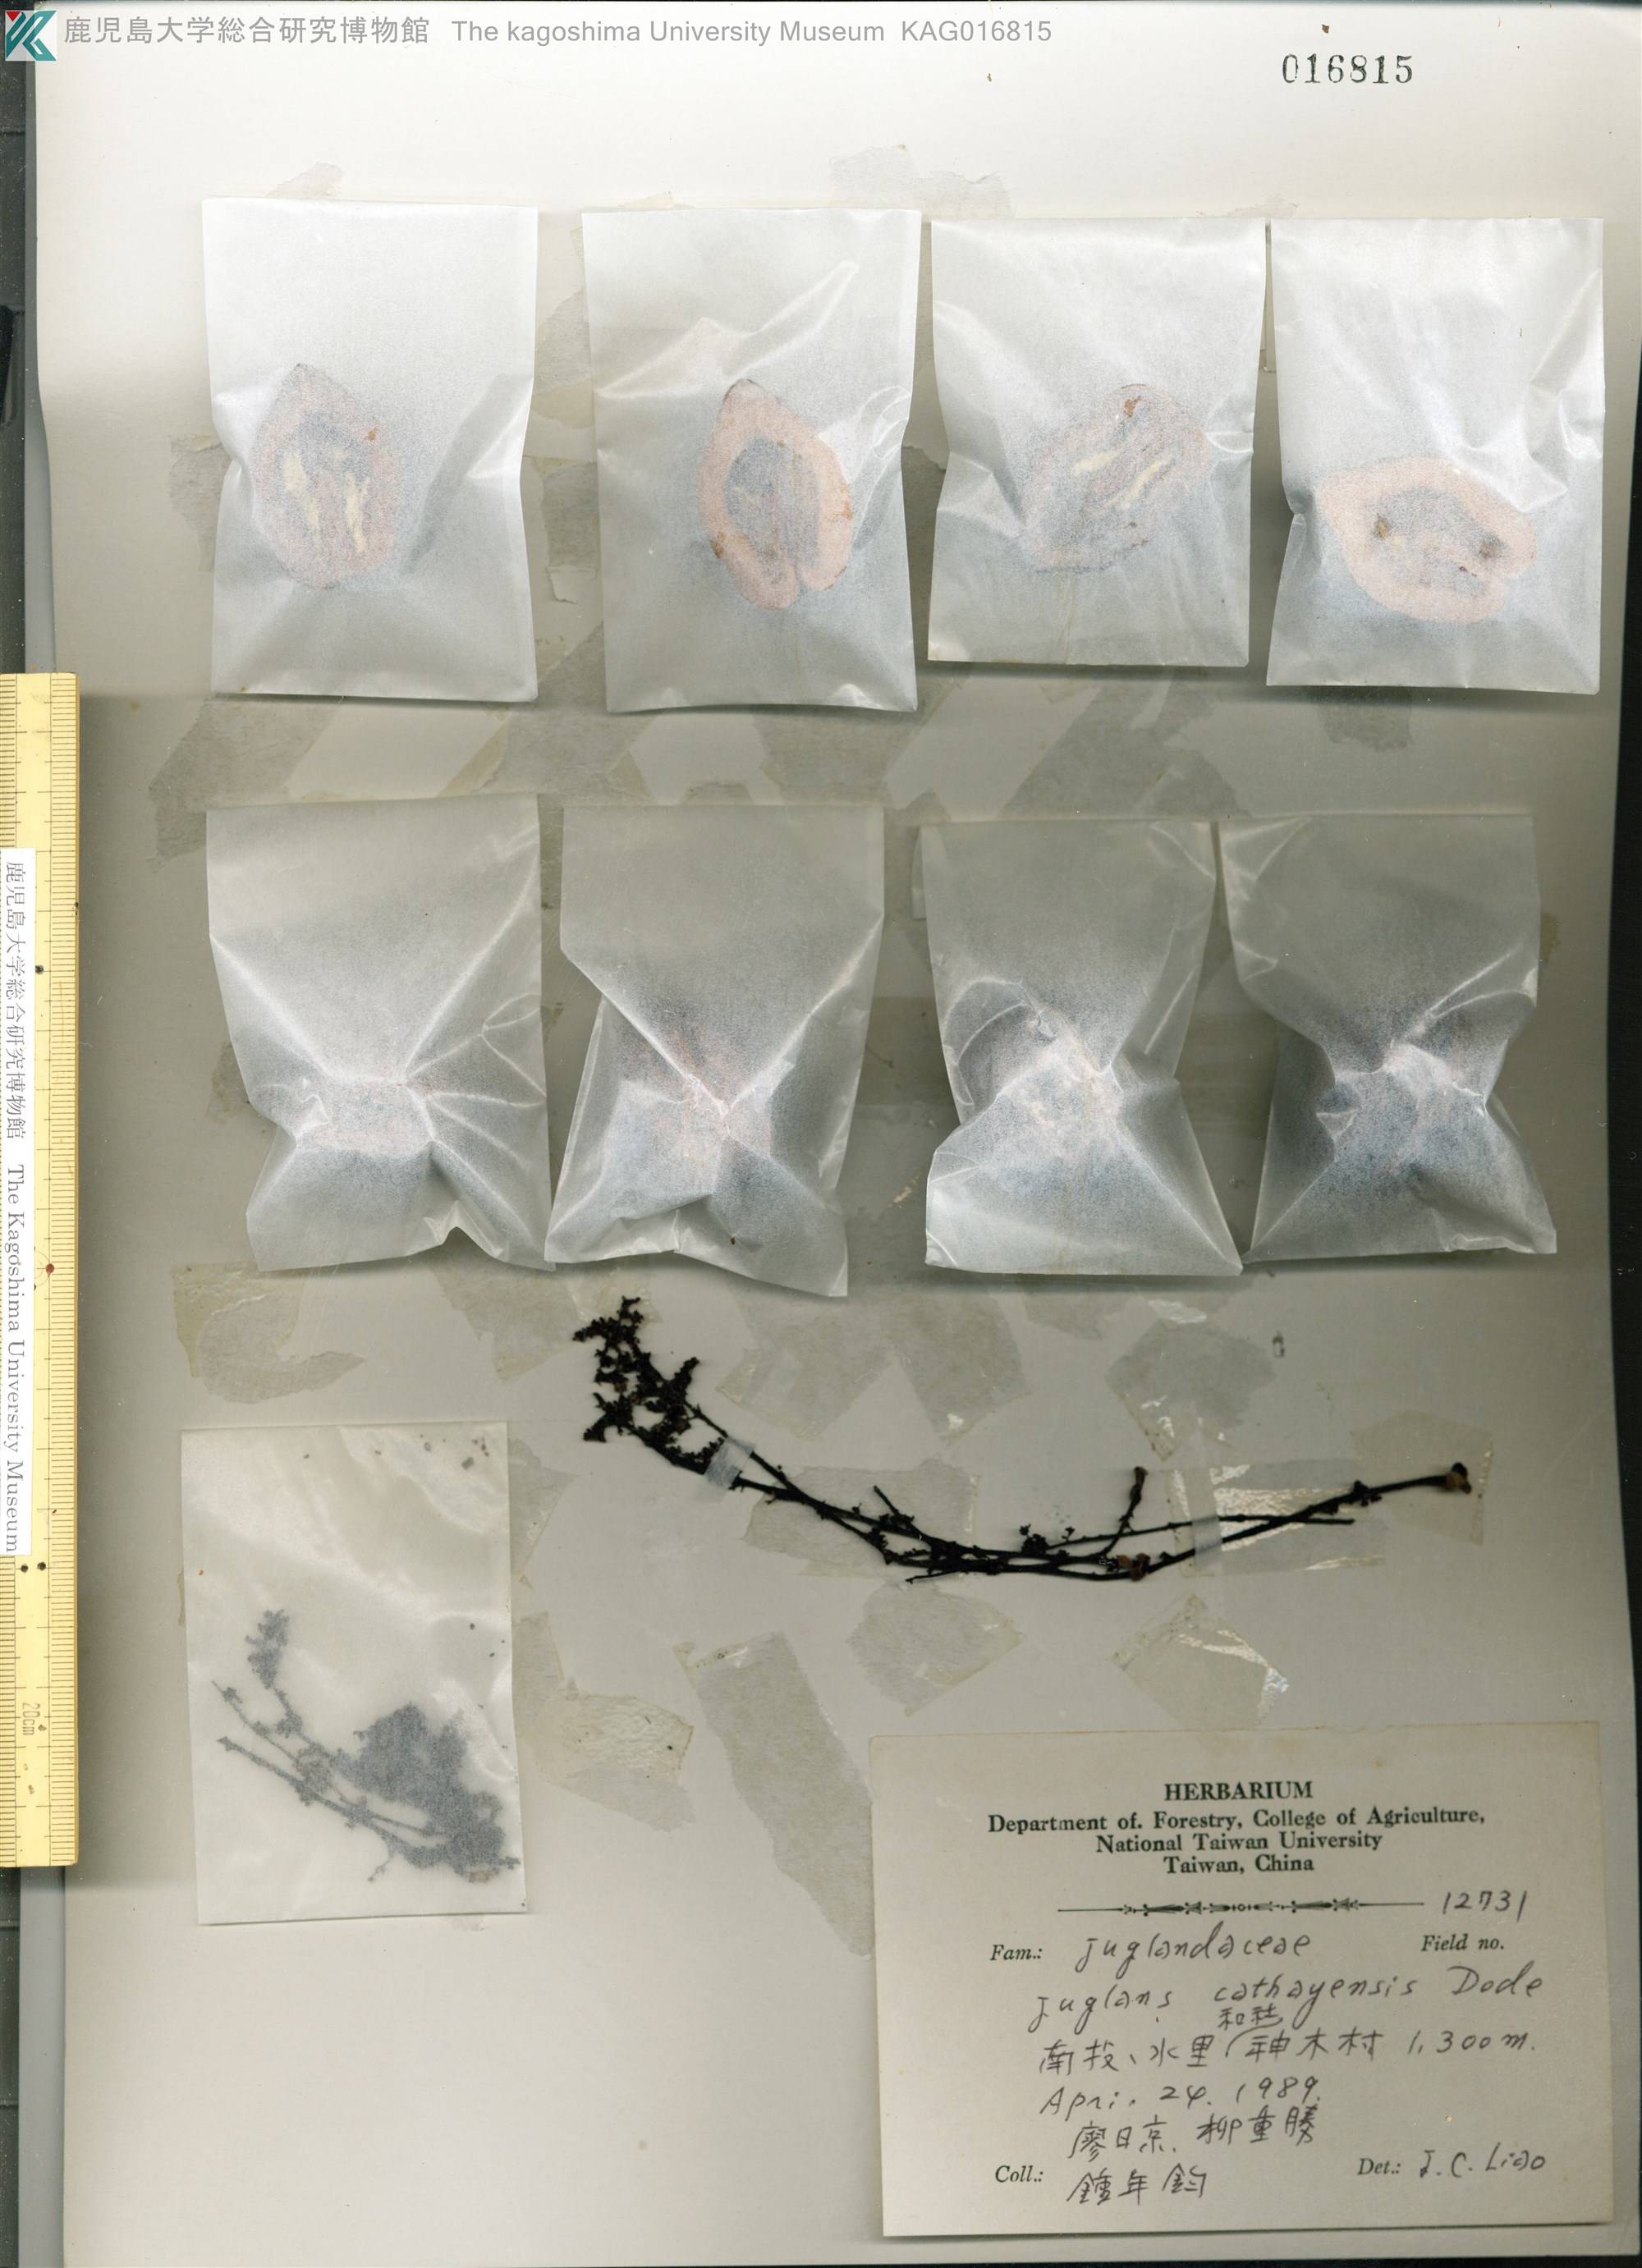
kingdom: Plantae
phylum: Tracheophyta
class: Magnoliopsida
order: Fagales
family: Juglandaceae
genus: Juglans
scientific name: Juglans mandshurica
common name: Manchurian walnut
